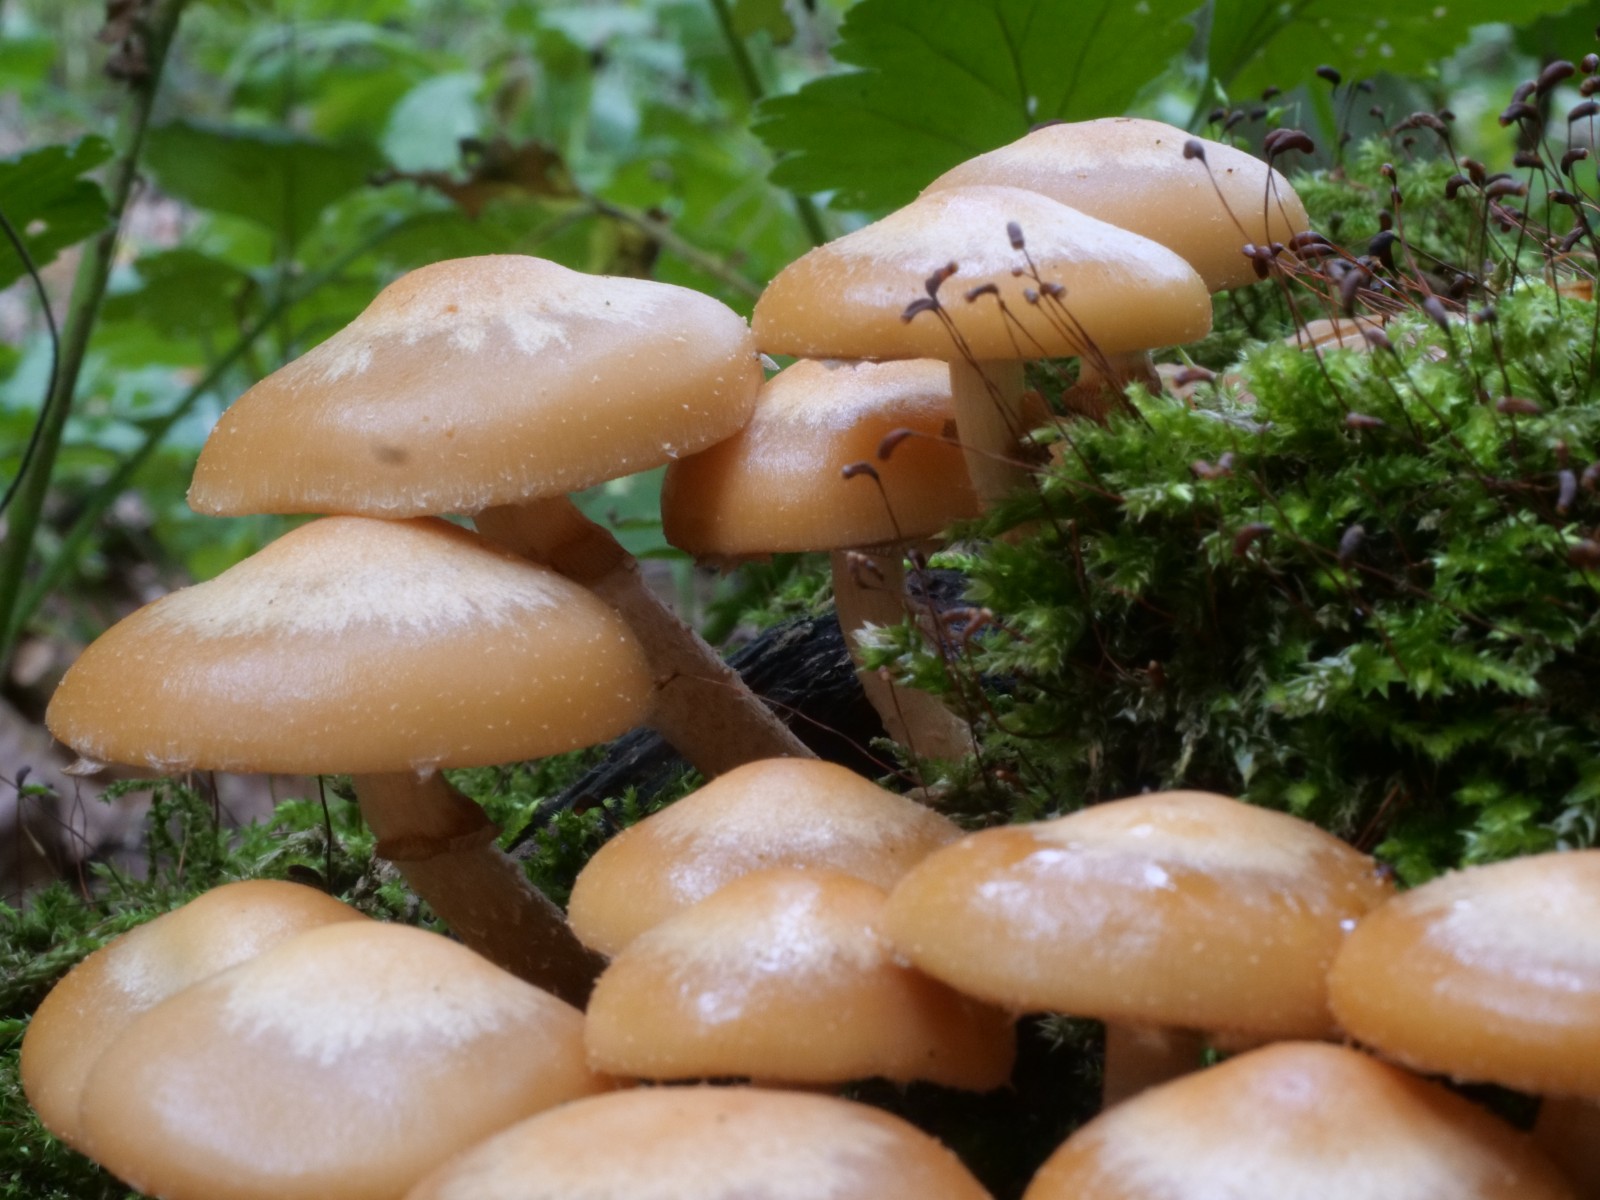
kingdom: Fungi
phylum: Basidiomycota
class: Agaricomycetes
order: Agaricales
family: Strophariaceae
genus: Kuehneromyces
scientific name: Kuehneromyces mutabilis
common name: foranderlig skælhat
